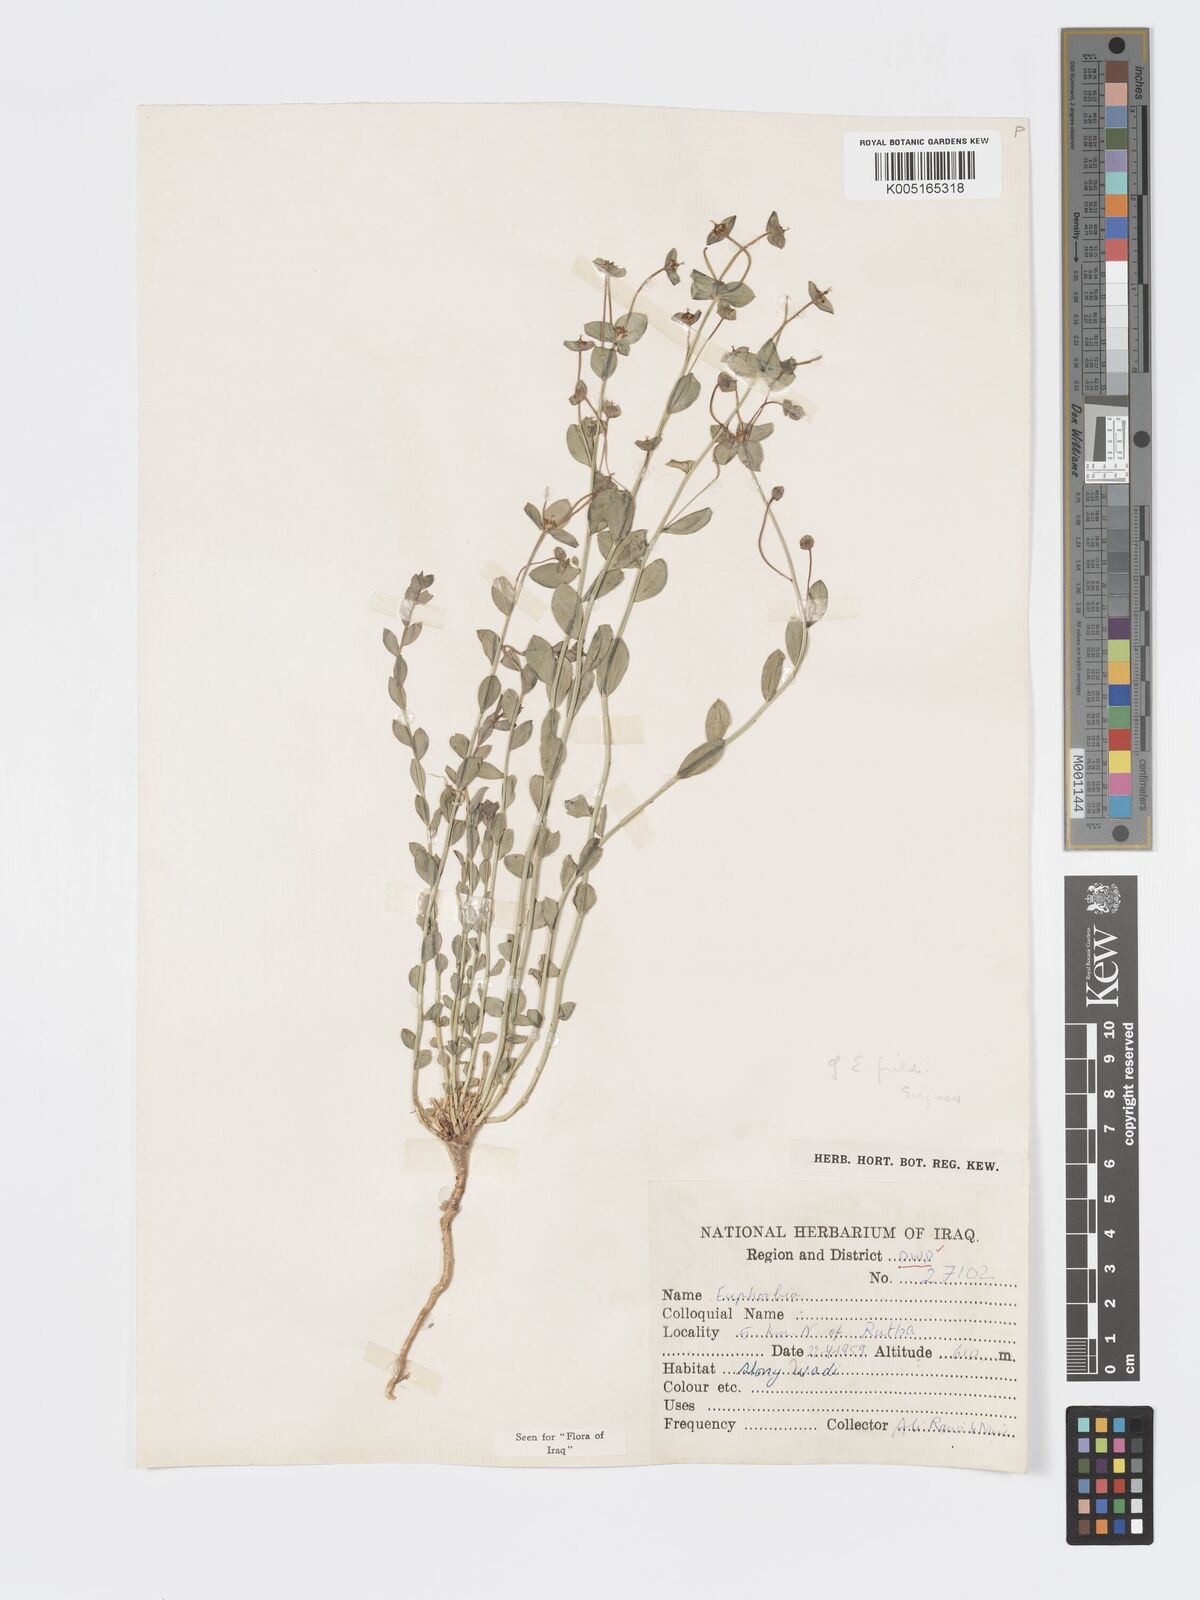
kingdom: Plantae
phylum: Tracheophyta
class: Magnoliopsida
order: Malpighiales
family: Euphorbiaceae
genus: Euphorbia
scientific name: Euphorbia cuspidata
